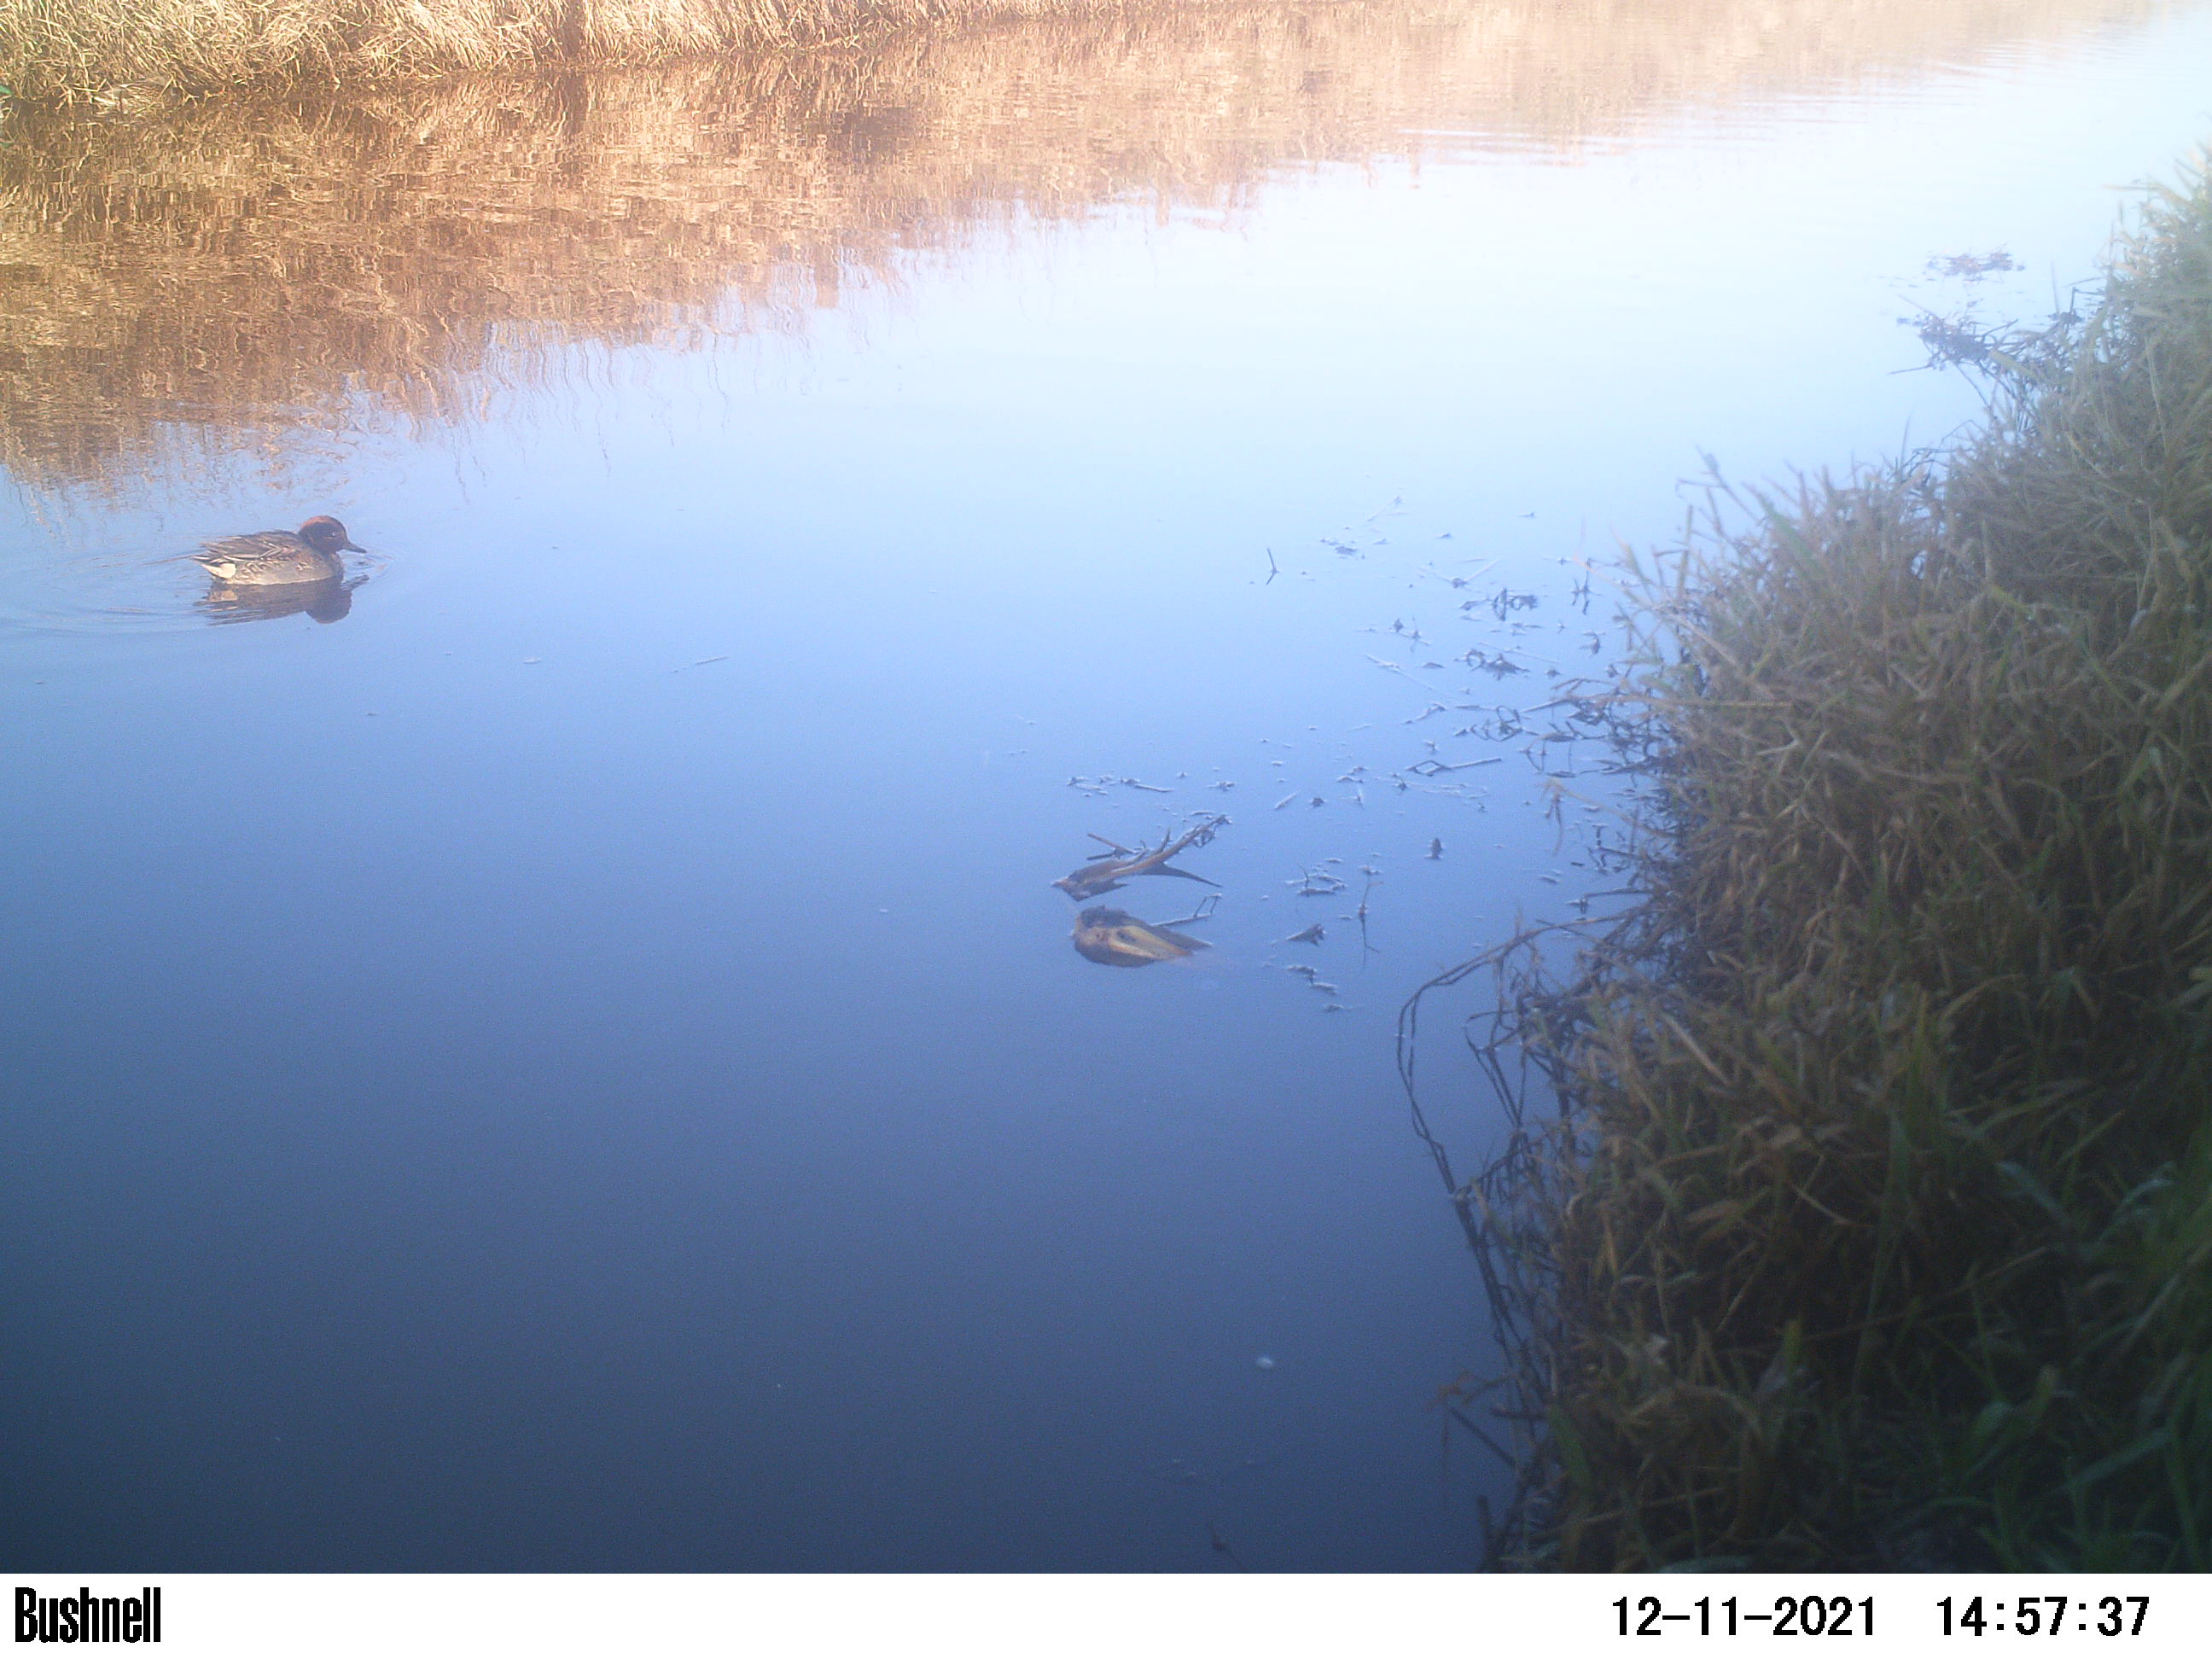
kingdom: Animalia
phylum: Chordata
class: Aves
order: Anseriformes
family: Anatidae
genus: Anas
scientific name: Anas
